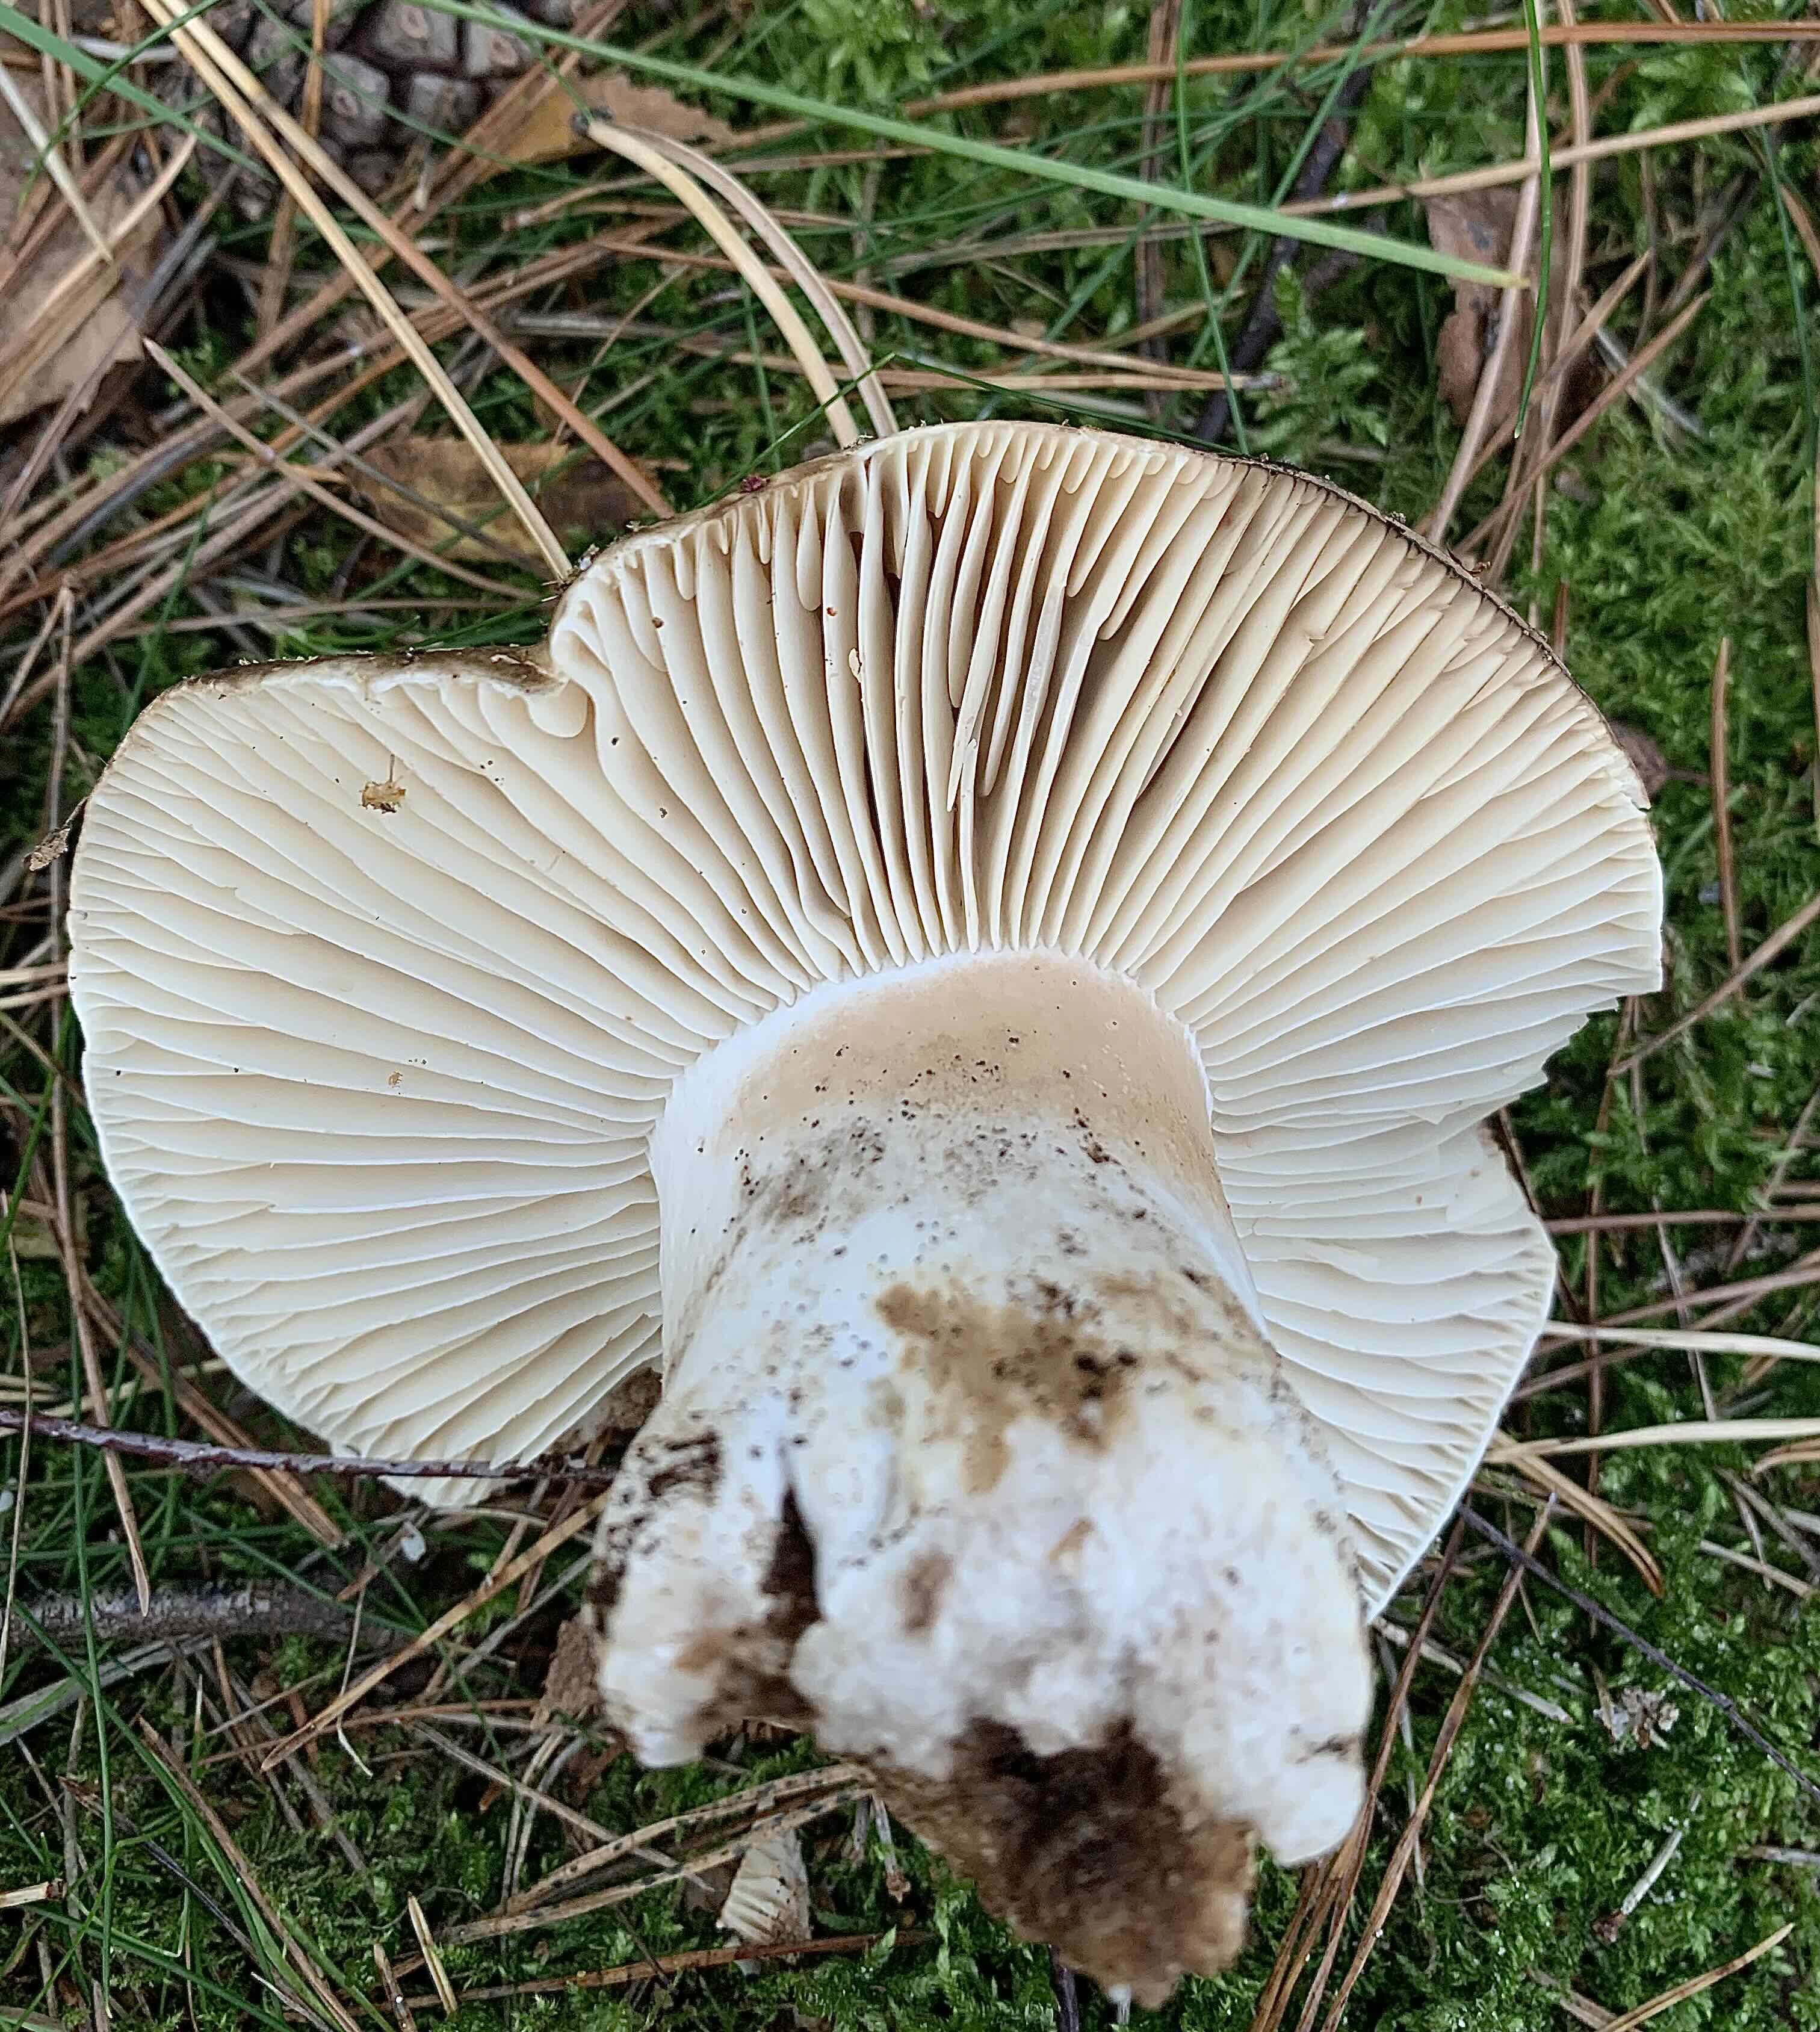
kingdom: Fungi
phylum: Basidiomycota
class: Agaricomycetes
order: Russulales
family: Russulaceae
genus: Russula
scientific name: Russula adusta
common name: sværtende skørhat
